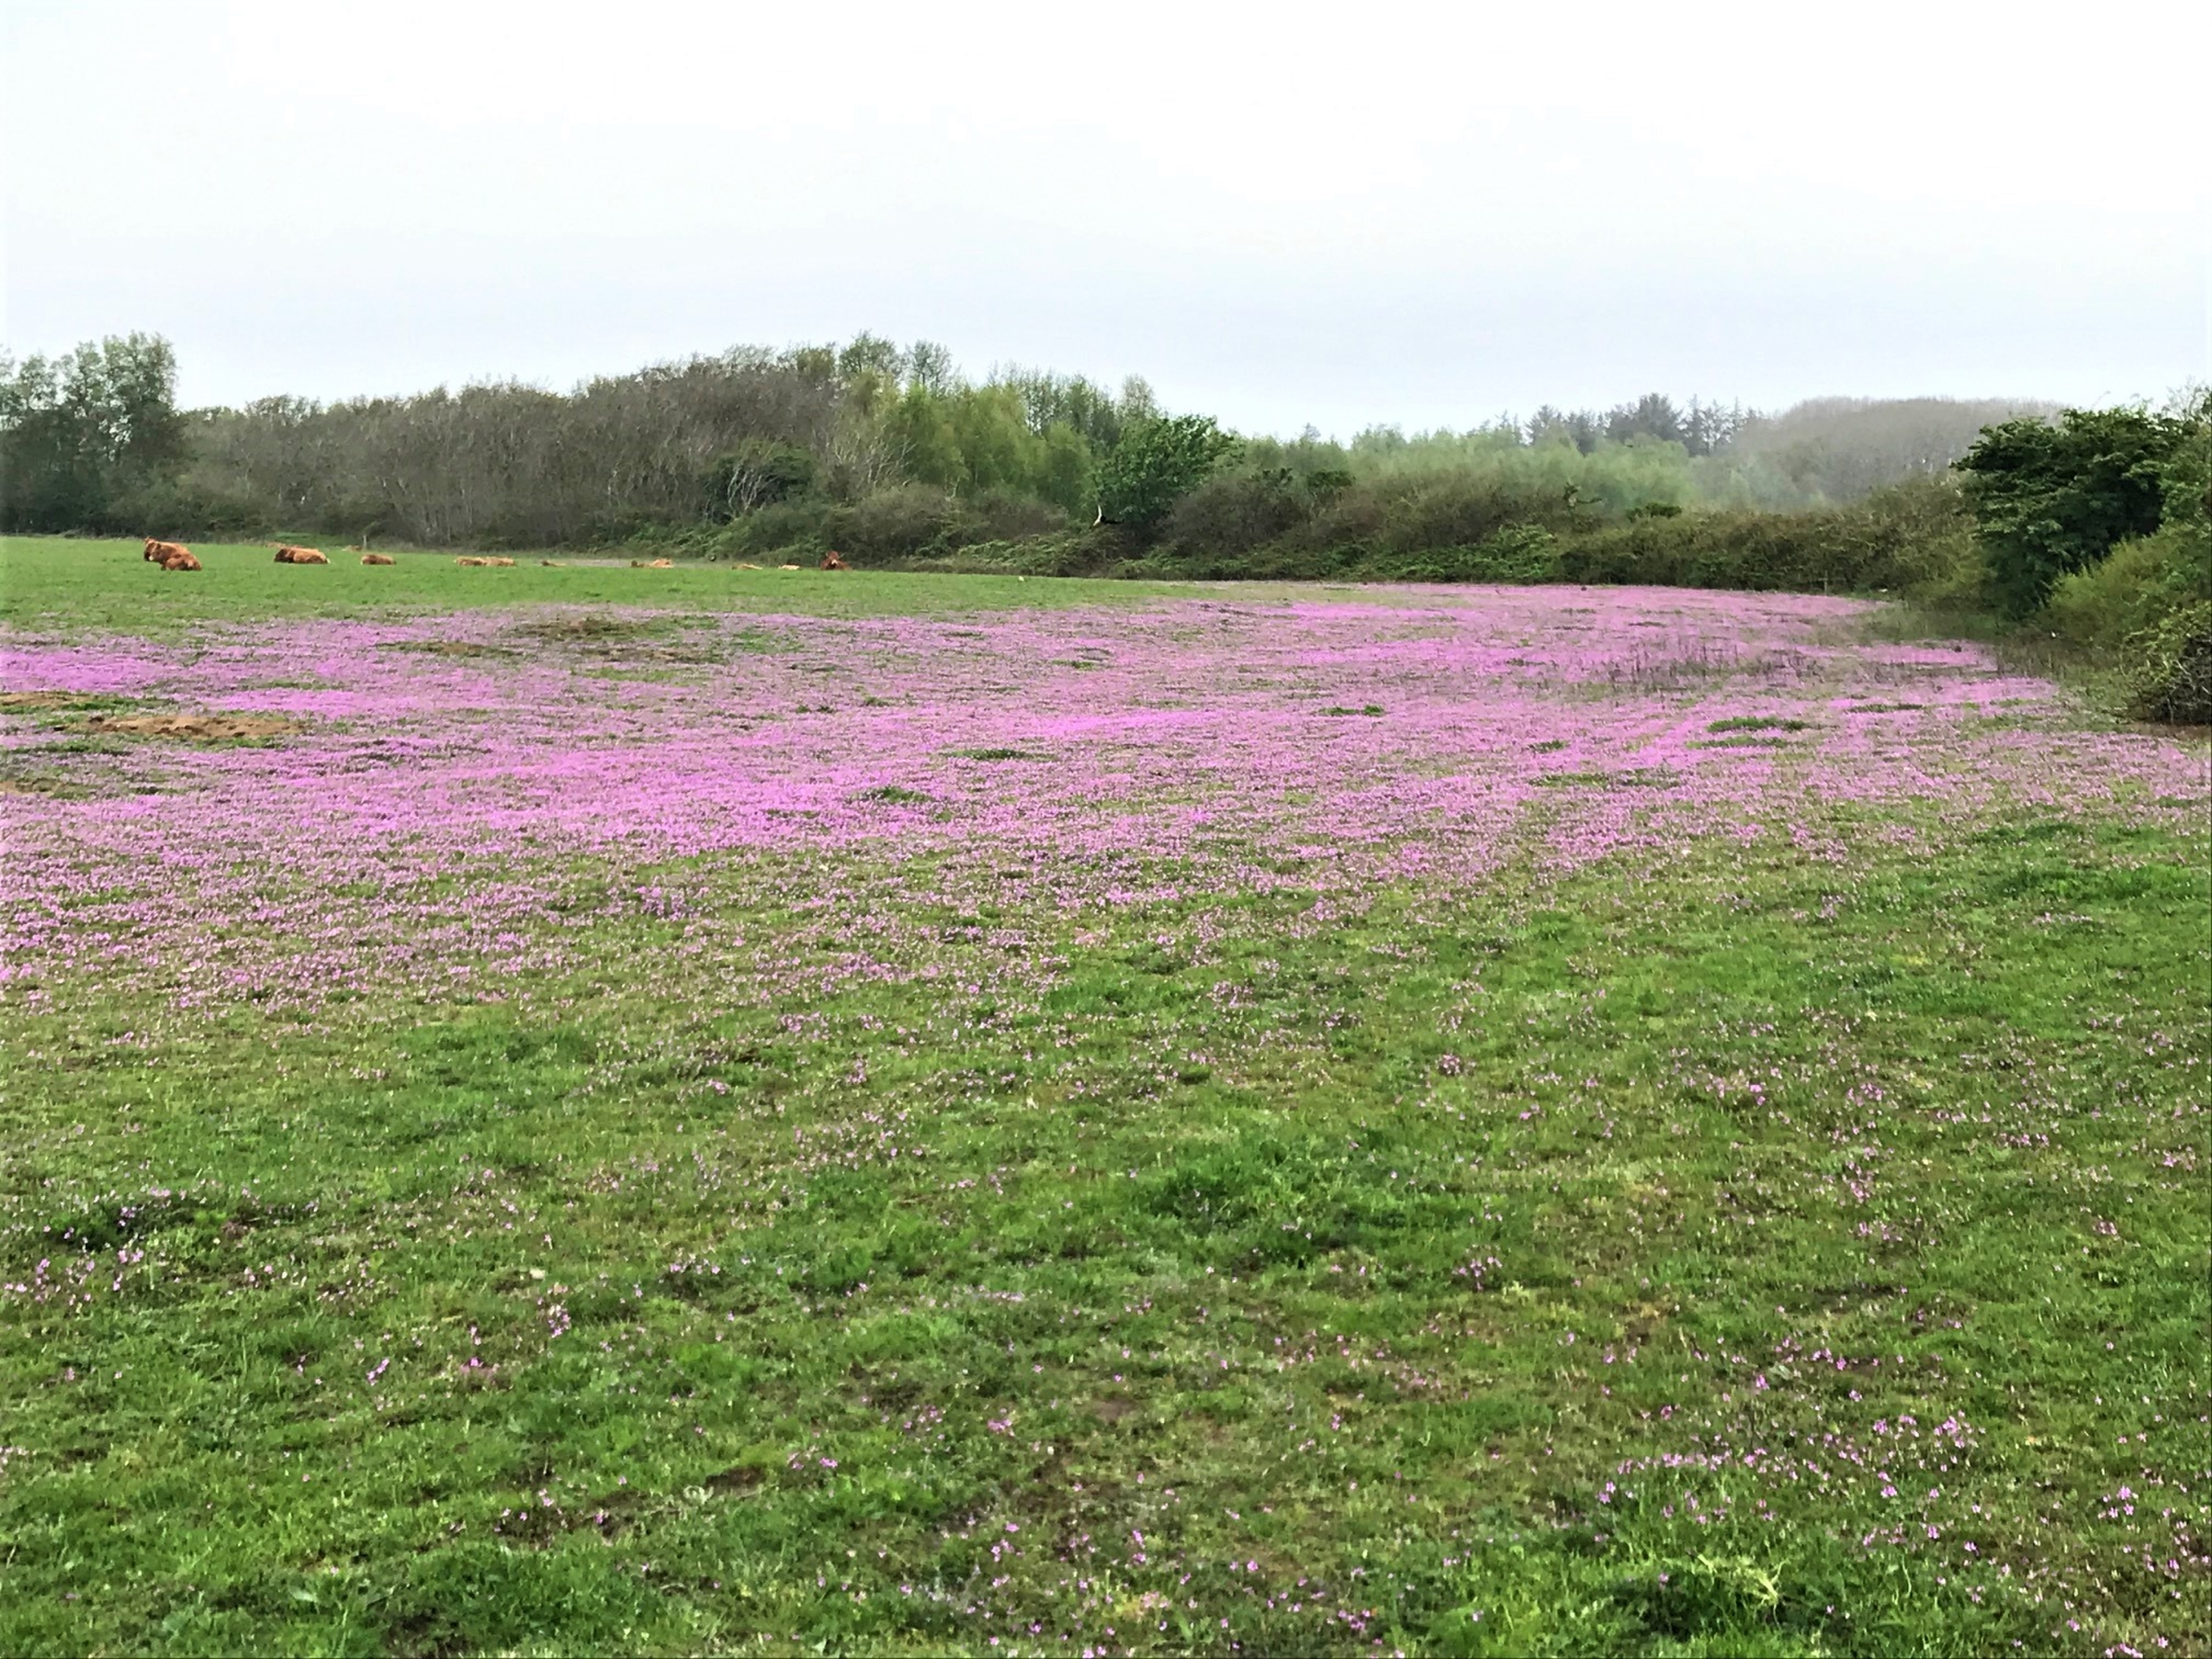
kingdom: Plantae
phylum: Tracheophyta
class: Magnoliopsida
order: Geraniales
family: Geraniaceae
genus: Erodium
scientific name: Erodium cicutarium
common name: Hejrenæb
